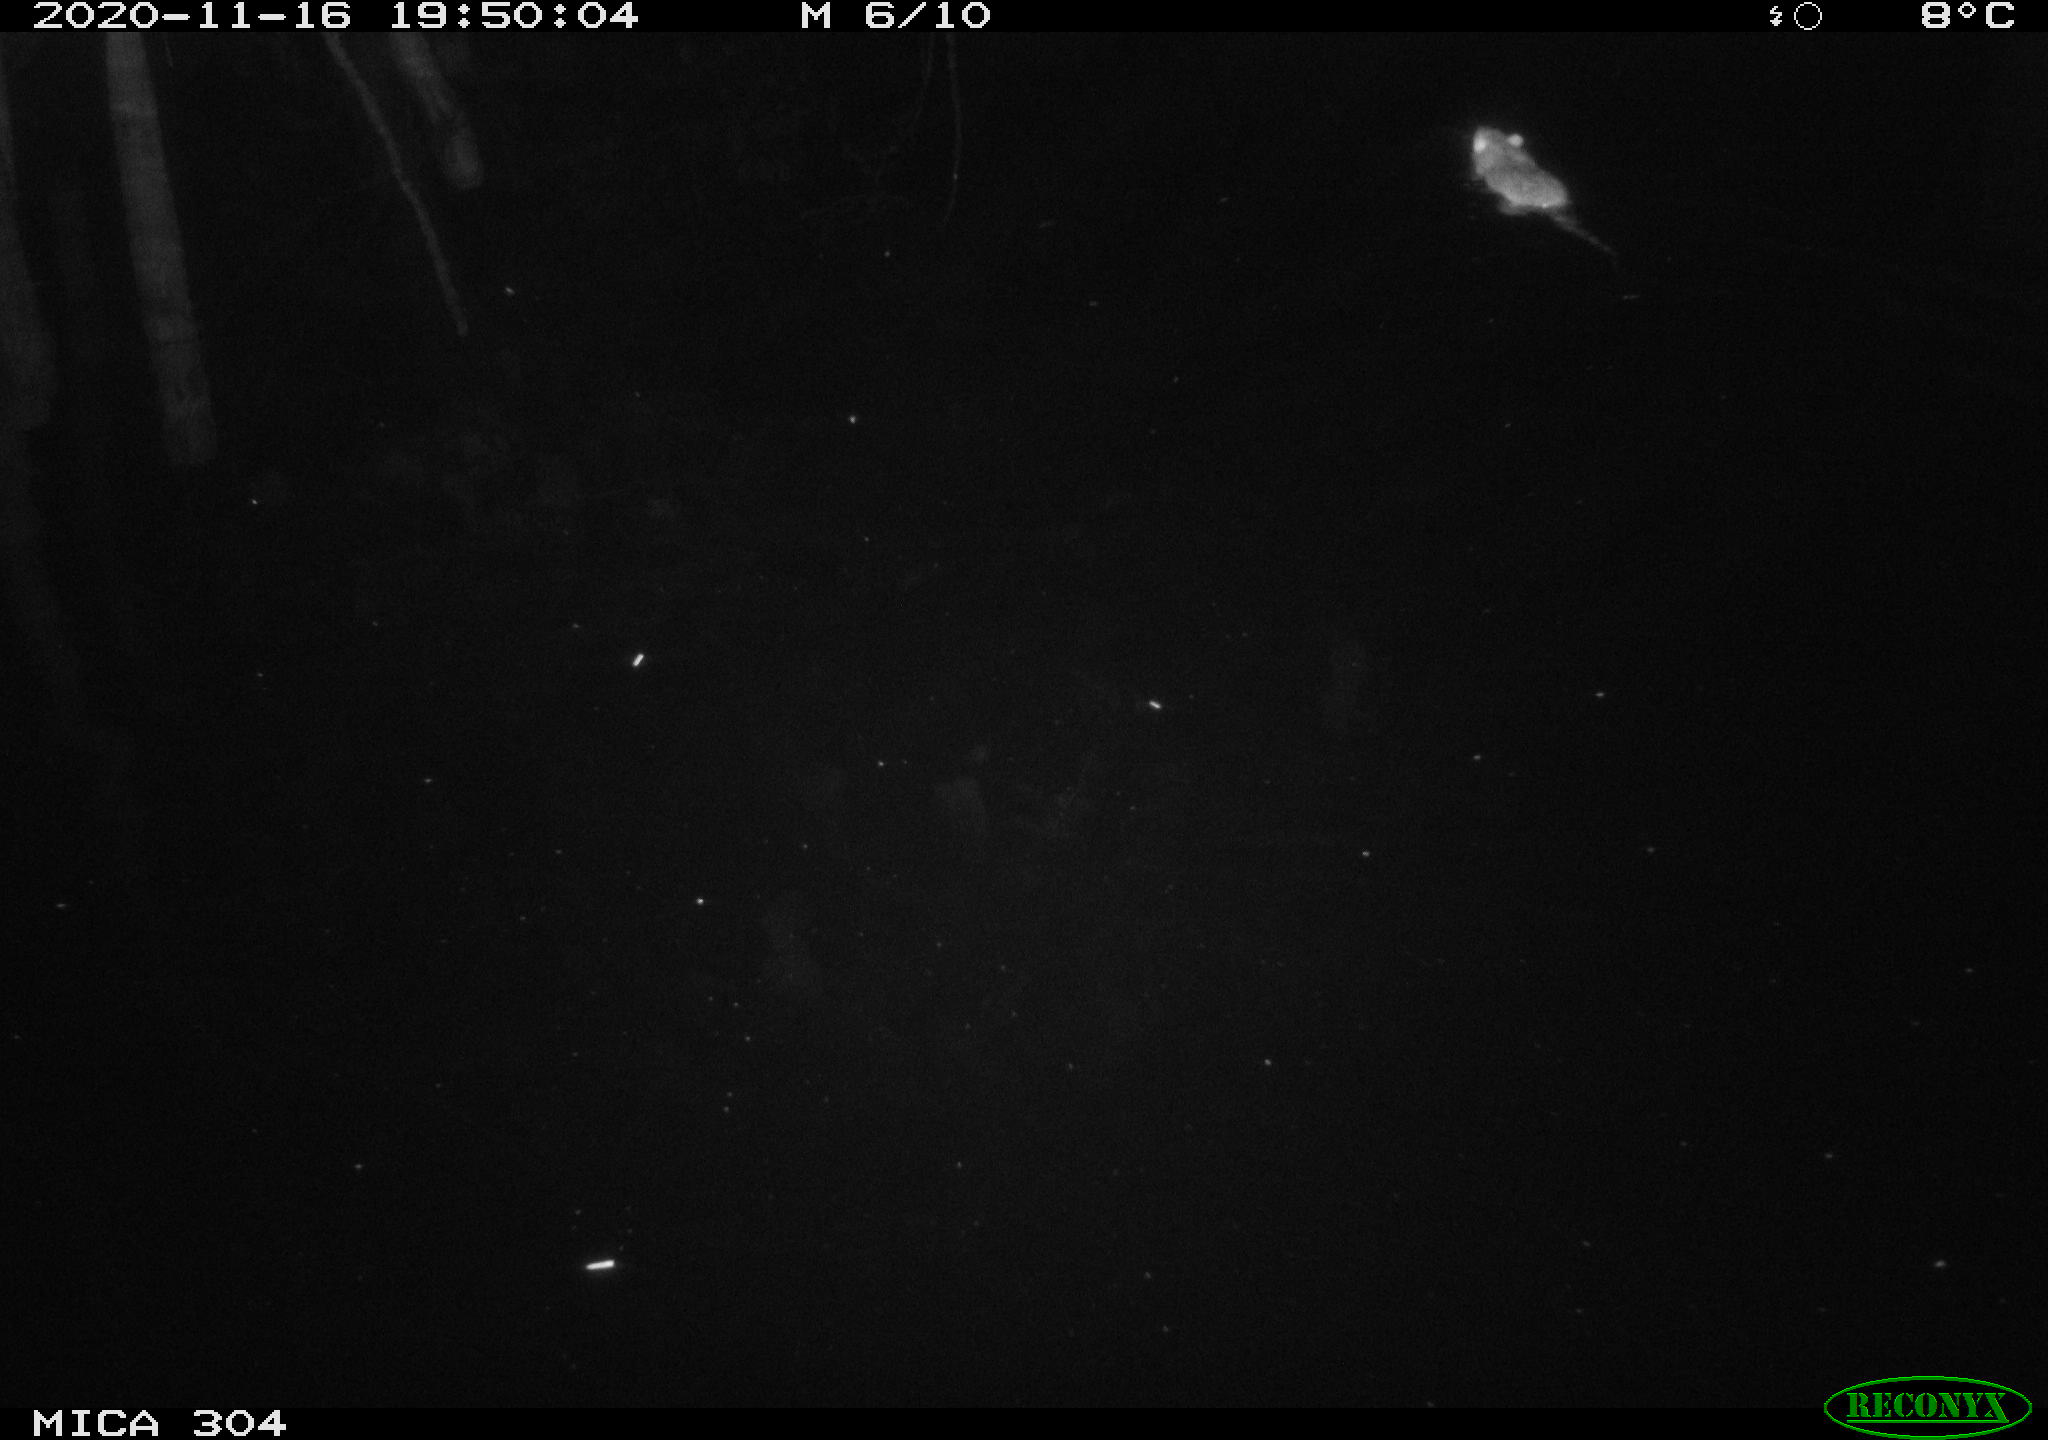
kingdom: Animalia
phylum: Chordata
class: Mammalia
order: Rodentia
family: Muridae
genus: Rattus
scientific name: Rattus norvegicus
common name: Brown rat
